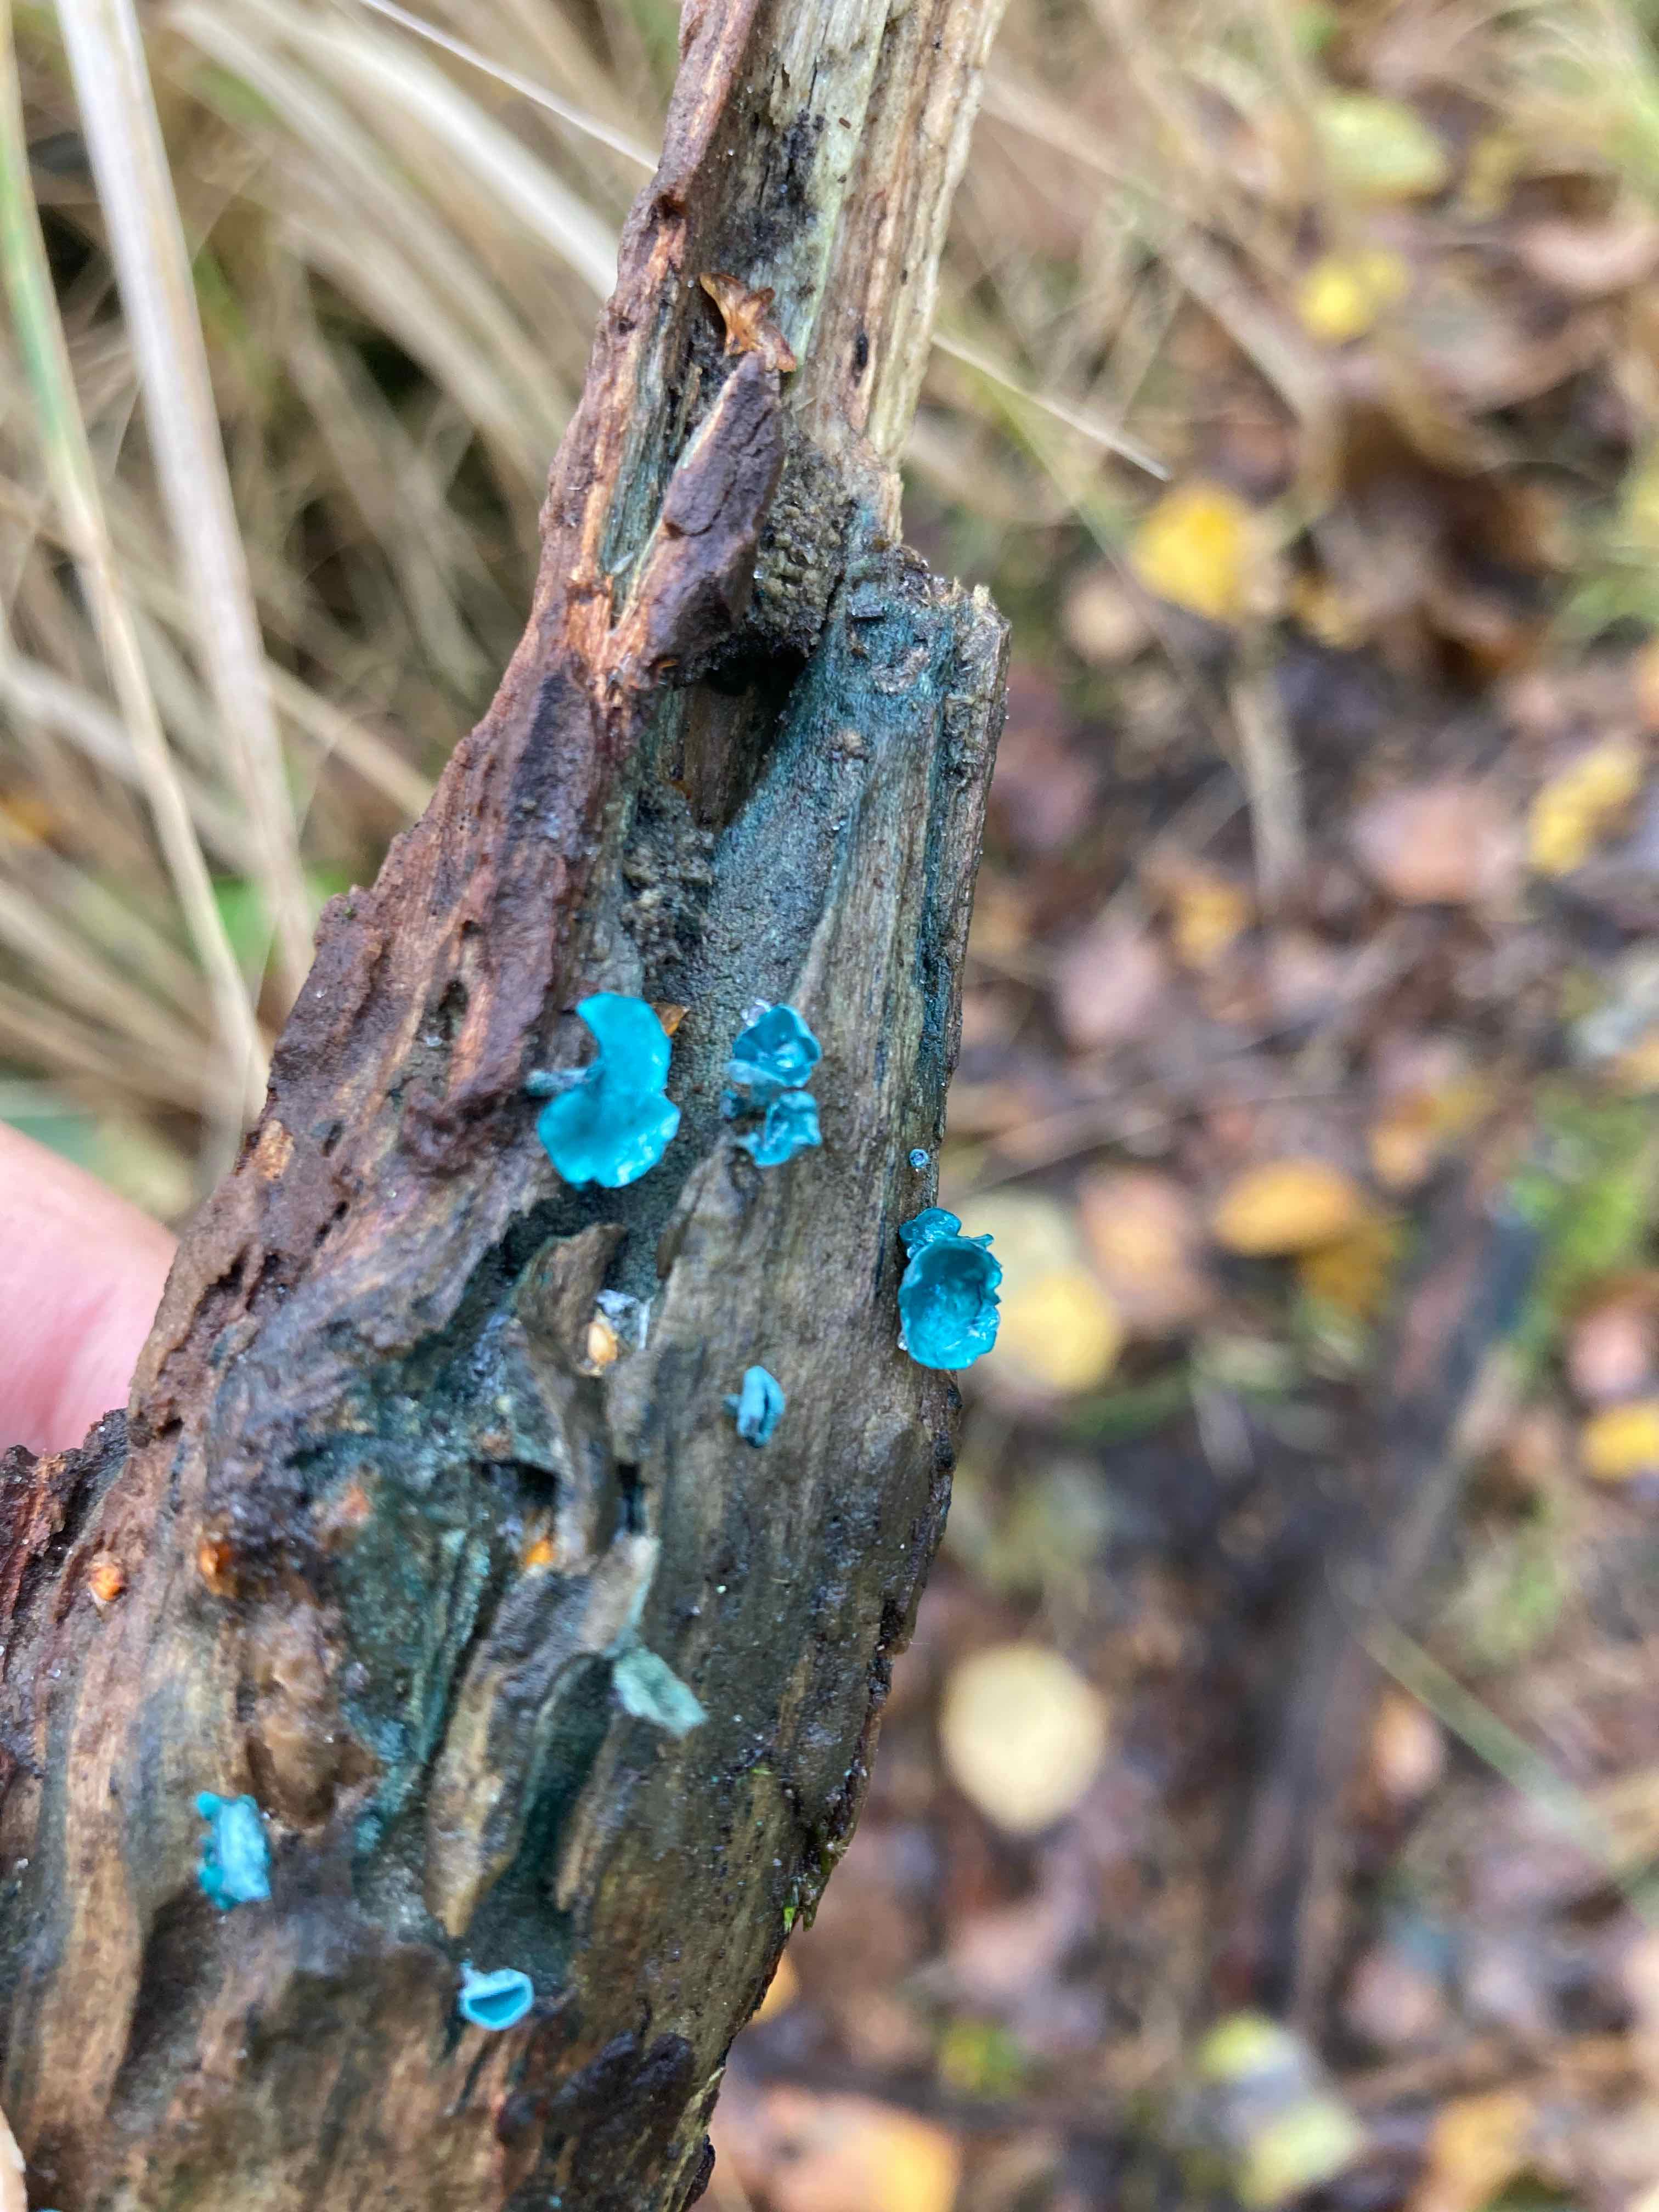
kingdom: Fungi
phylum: Ascomycota
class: Leotiomycetes
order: Helotiales
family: Chlorociboriaceae
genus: Chlorociboria
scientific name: Chlorociboria aeruginascens
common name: almindelig grønskive
